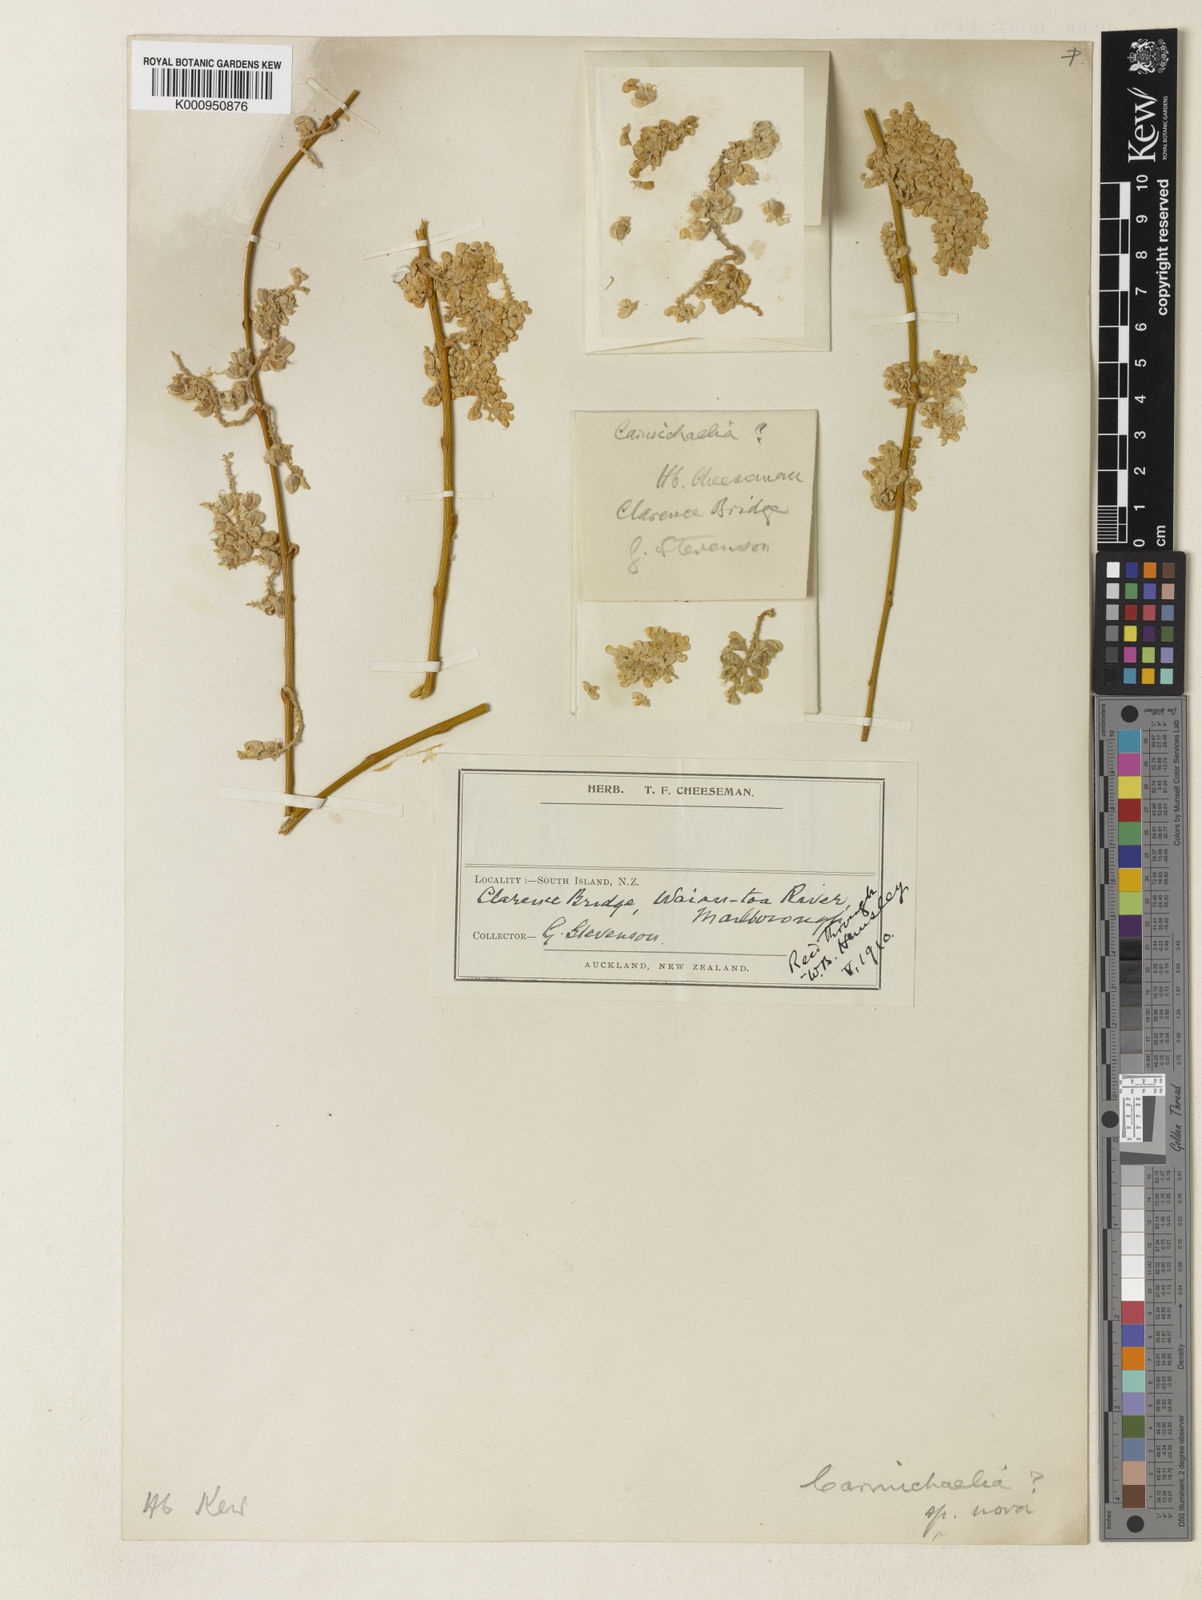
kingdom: Plantae
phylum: Tracheophyta
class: Magnoliopsida
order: Fabales
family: Fabaceae
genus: Carmichaelia
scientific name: Carmichaelia stevensonii
